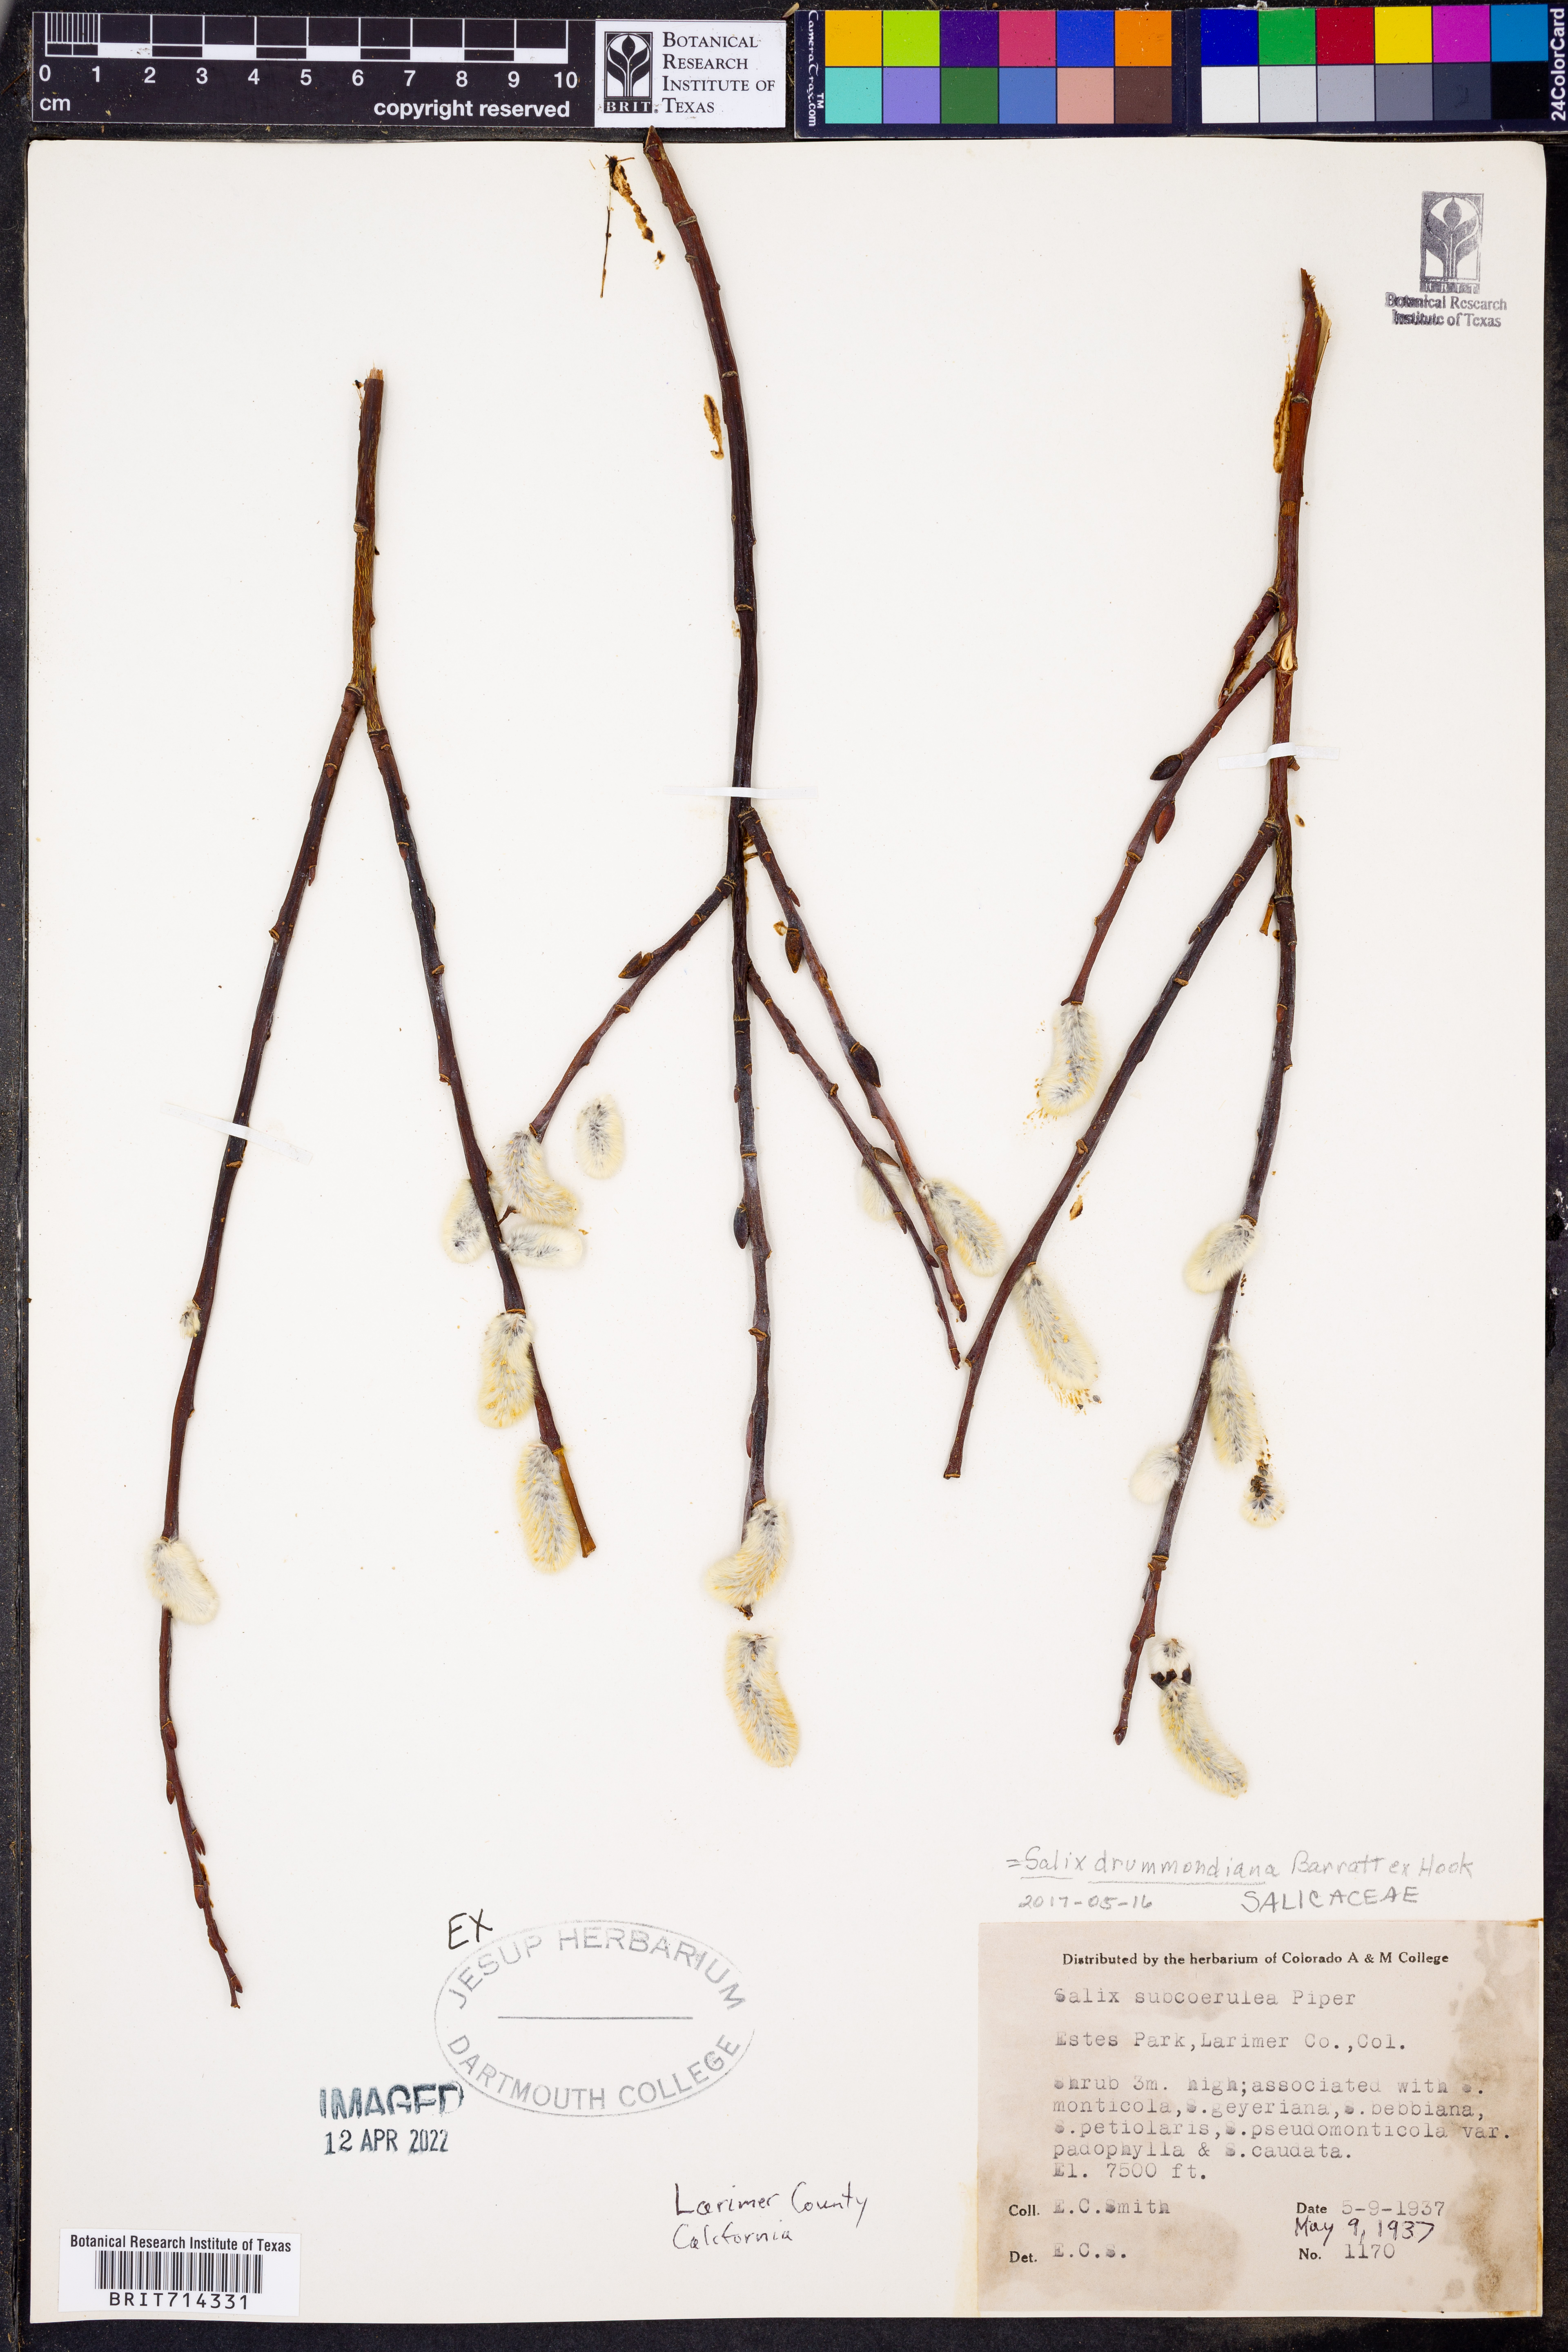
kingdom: Plantae
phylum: Tracheophyta
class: Magnoliopsida
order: Malpighiales
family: Salicaceae
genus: Salix
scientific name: Salix
